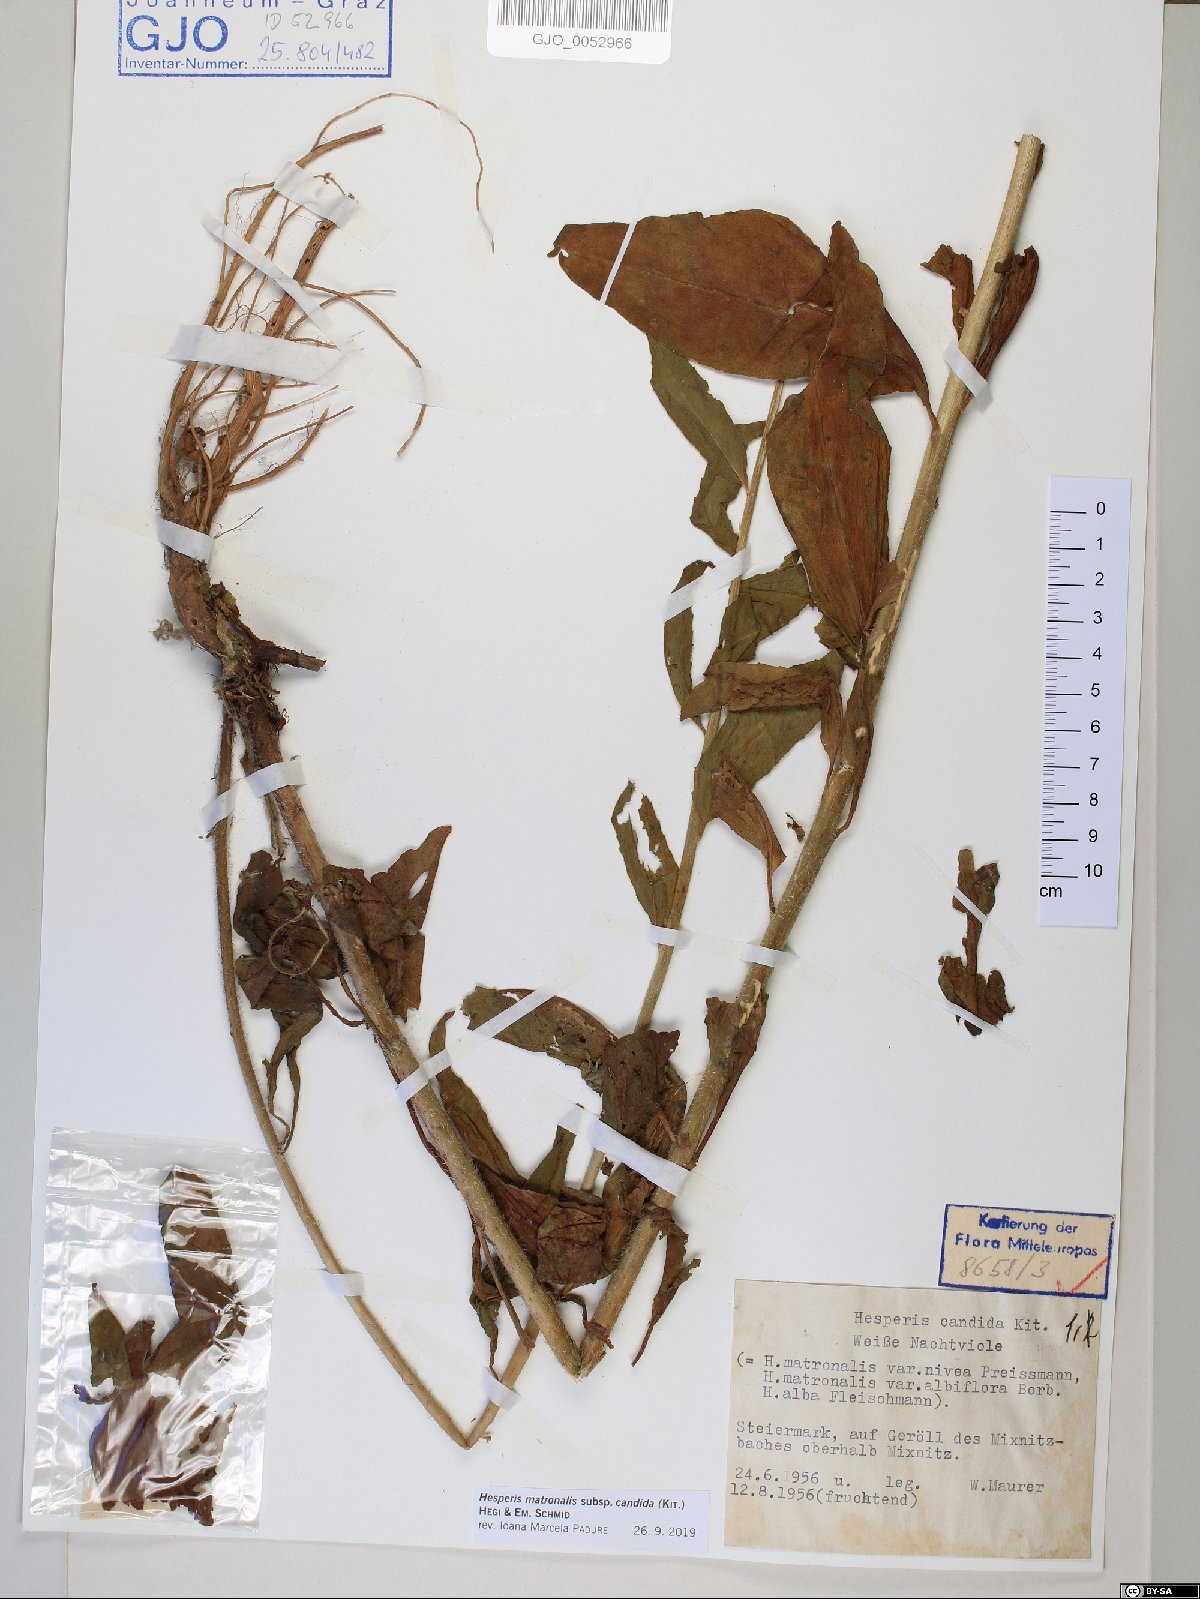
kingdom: Plantae
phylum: Tracheophyta
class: Magnoliopsida
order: Brassicales
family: Brassicaceae
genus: Hesperis
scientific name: Hesperis matronalis
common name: Dame's-violet
